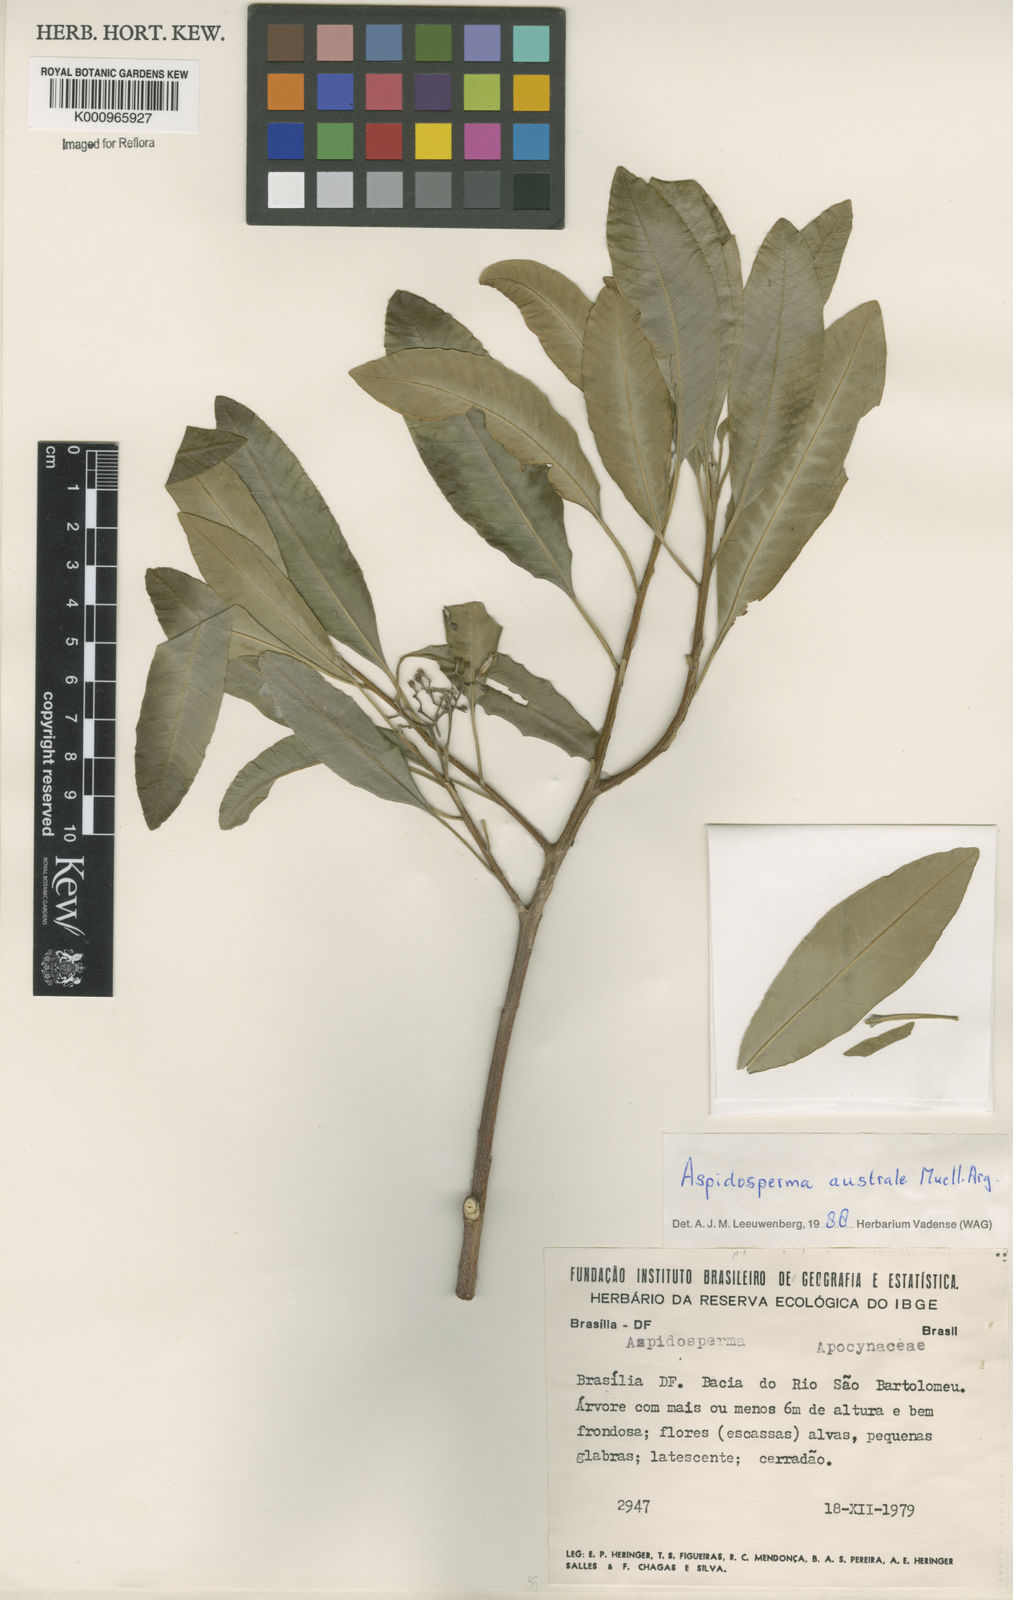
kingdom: Plantae
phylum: Tracheophyta
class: Magnoliopsida
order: Gentianales
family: Apocynaceae
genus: Aspidosperma
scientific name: Aspidosperma
